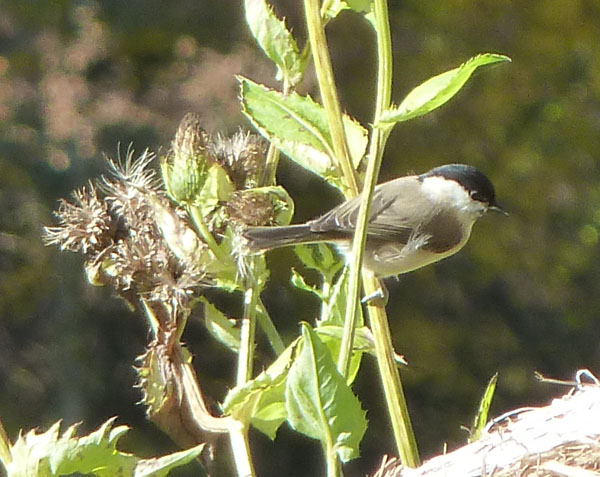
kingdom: Animalia
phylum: Chordata
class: Aves
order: Passeriformes
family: Paridae
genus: Poecile
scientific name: Poecile montanus
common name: Willow tit
